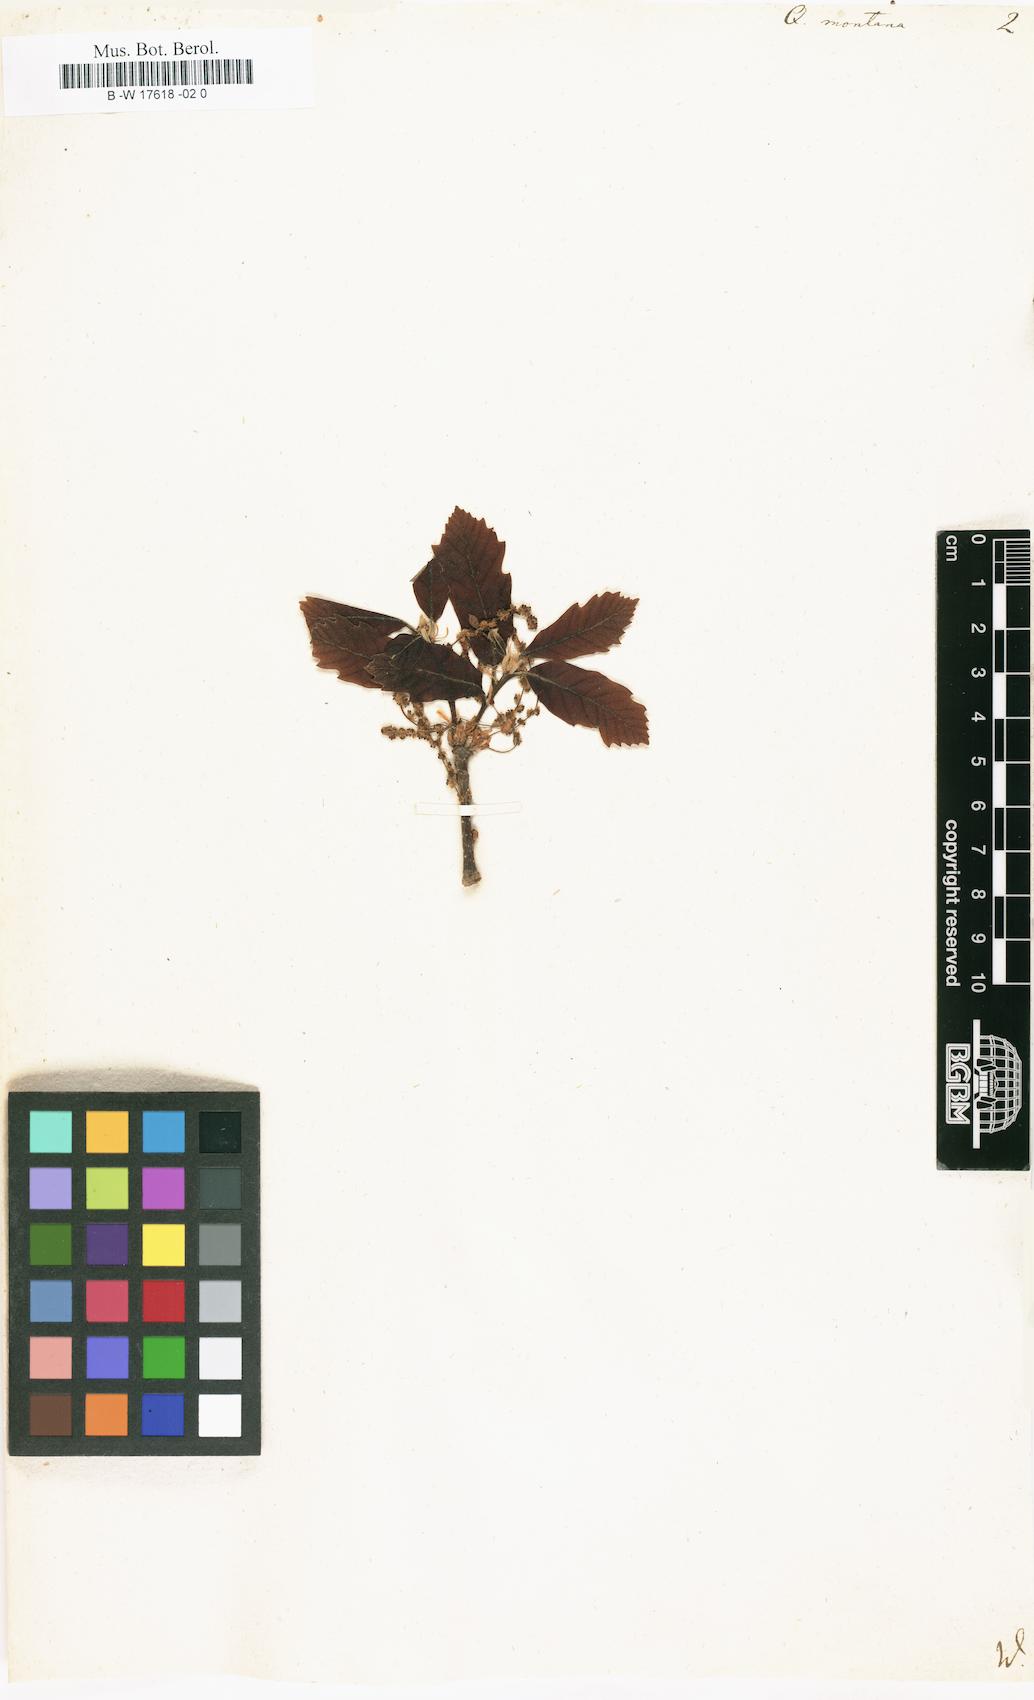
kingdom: Plantae
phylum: Tracheophyta
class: Magnoliopsida
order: Fagales
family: Fagaceae
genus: Quercus
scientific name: Quercus montana
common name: Chestnut oak
